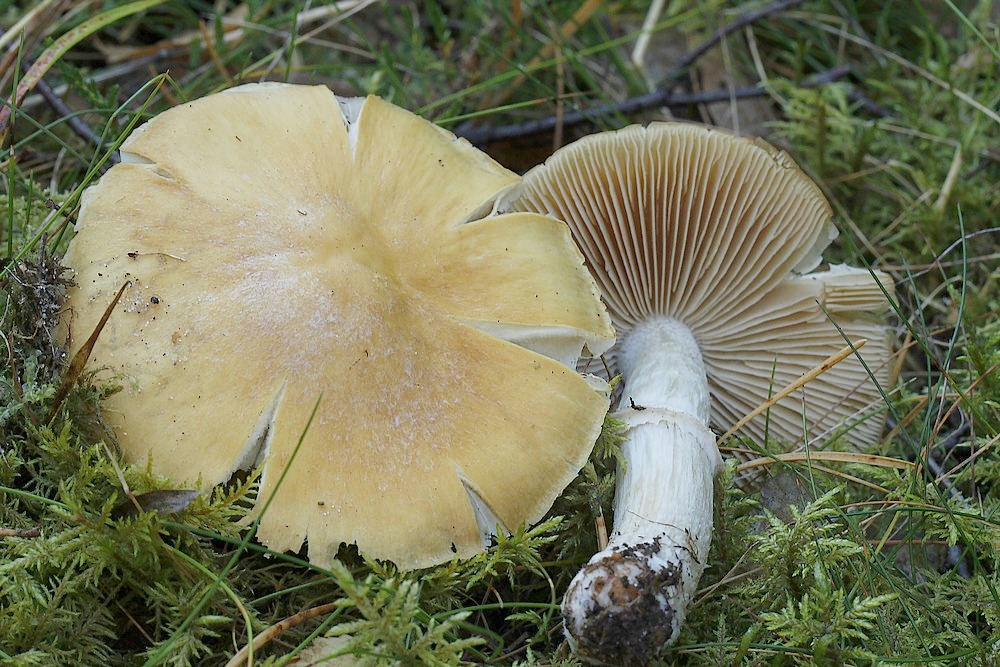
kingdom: Fungi
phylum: Basidiomycota
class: Agaricomycetes
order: Agaricales
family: Cortinariaceae
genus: Cortinarius
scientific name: Cortinarius caperatus
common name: klidhat
